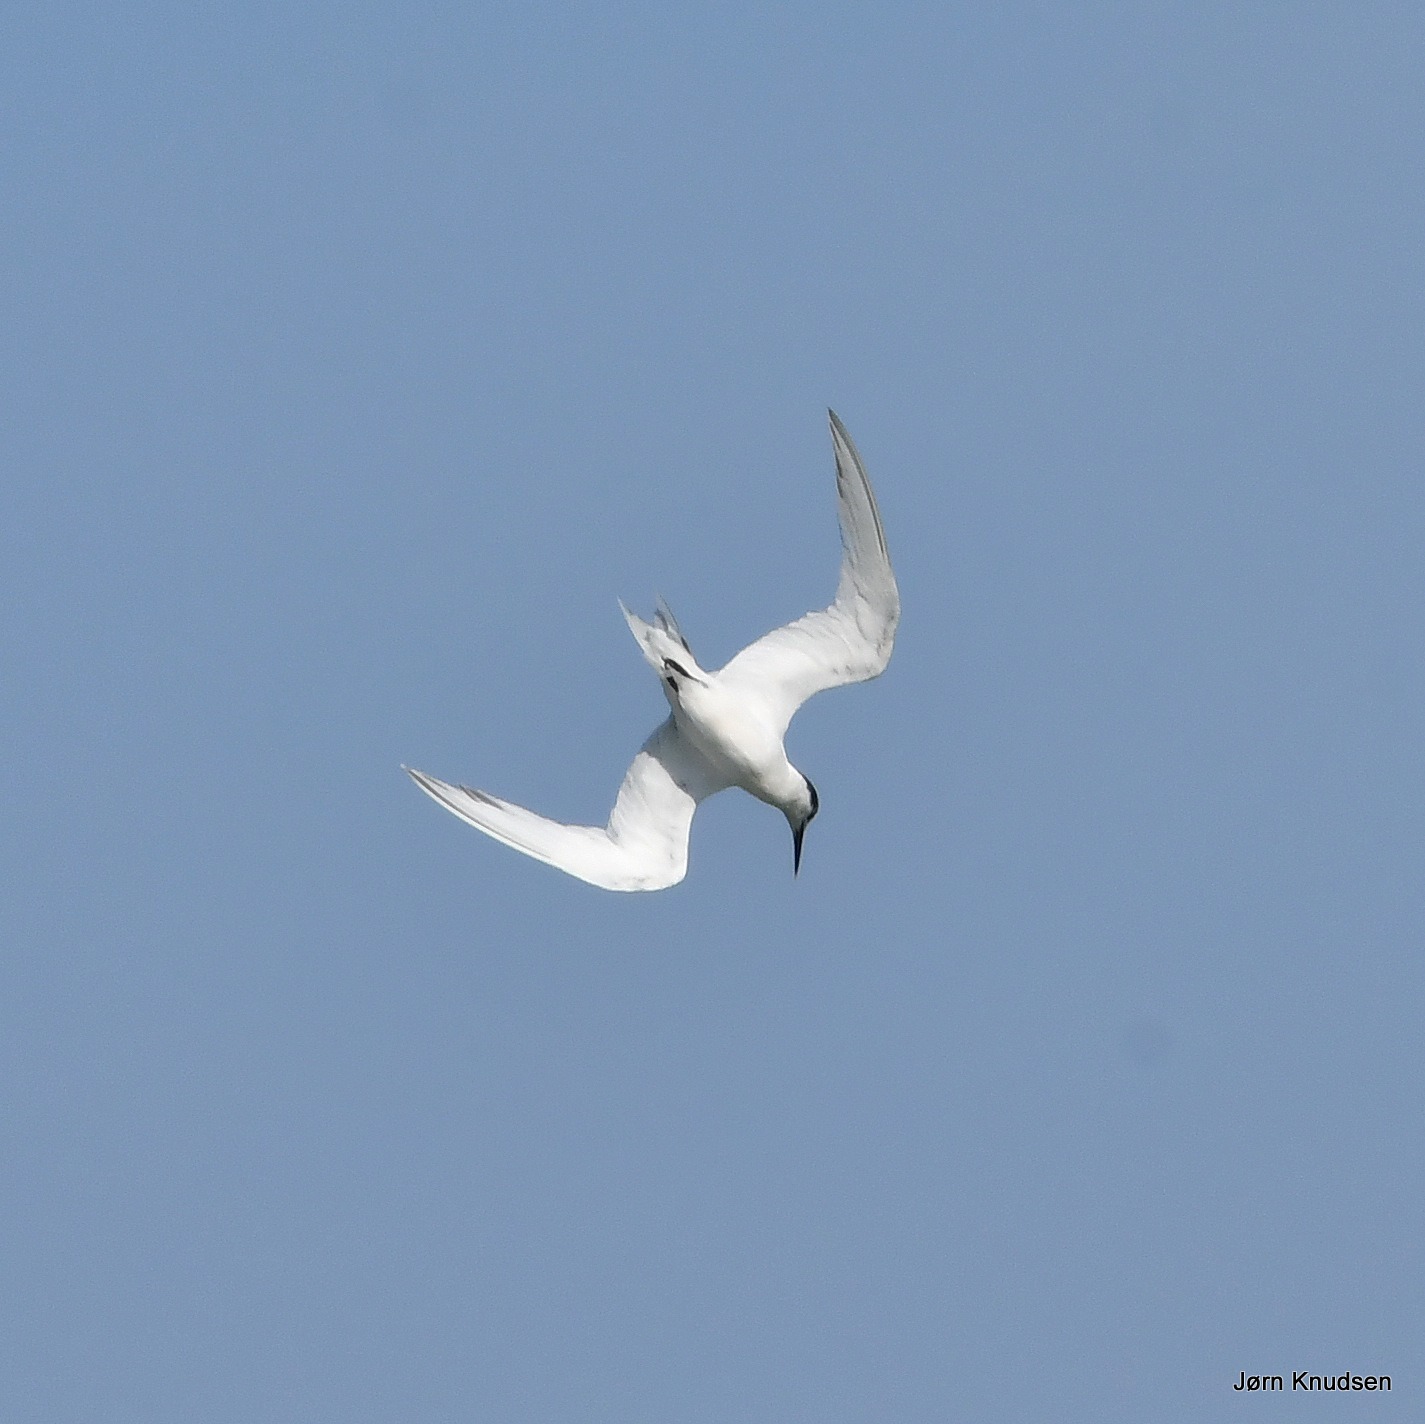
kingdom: Animalia
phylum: Chordata
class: Aves
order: Charadriiformes
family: Laridae
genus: Thalasseus
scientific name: Thalasseus sandvicensis
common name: Splitterne
